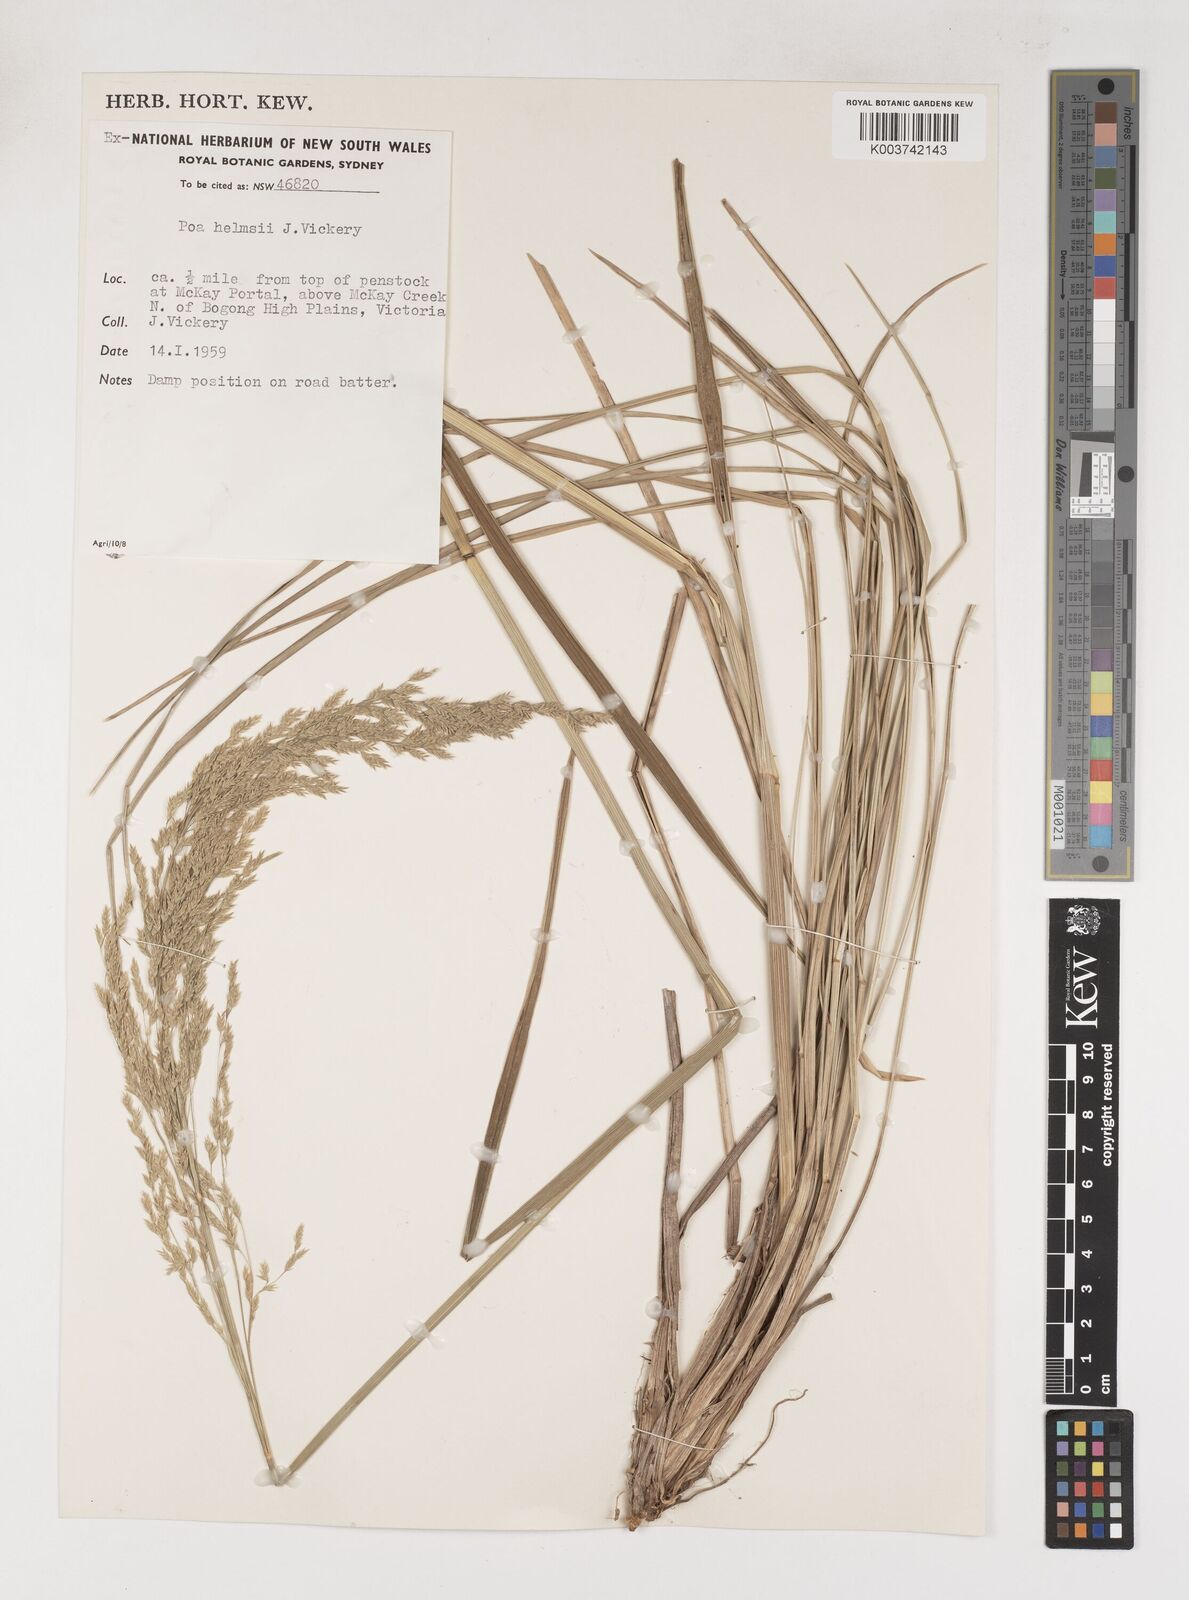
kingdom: Plantae
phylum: Tracheophyta
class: Liliopsida
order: Poales
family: Poaceae
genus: Poa
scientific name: Poa helmsii
